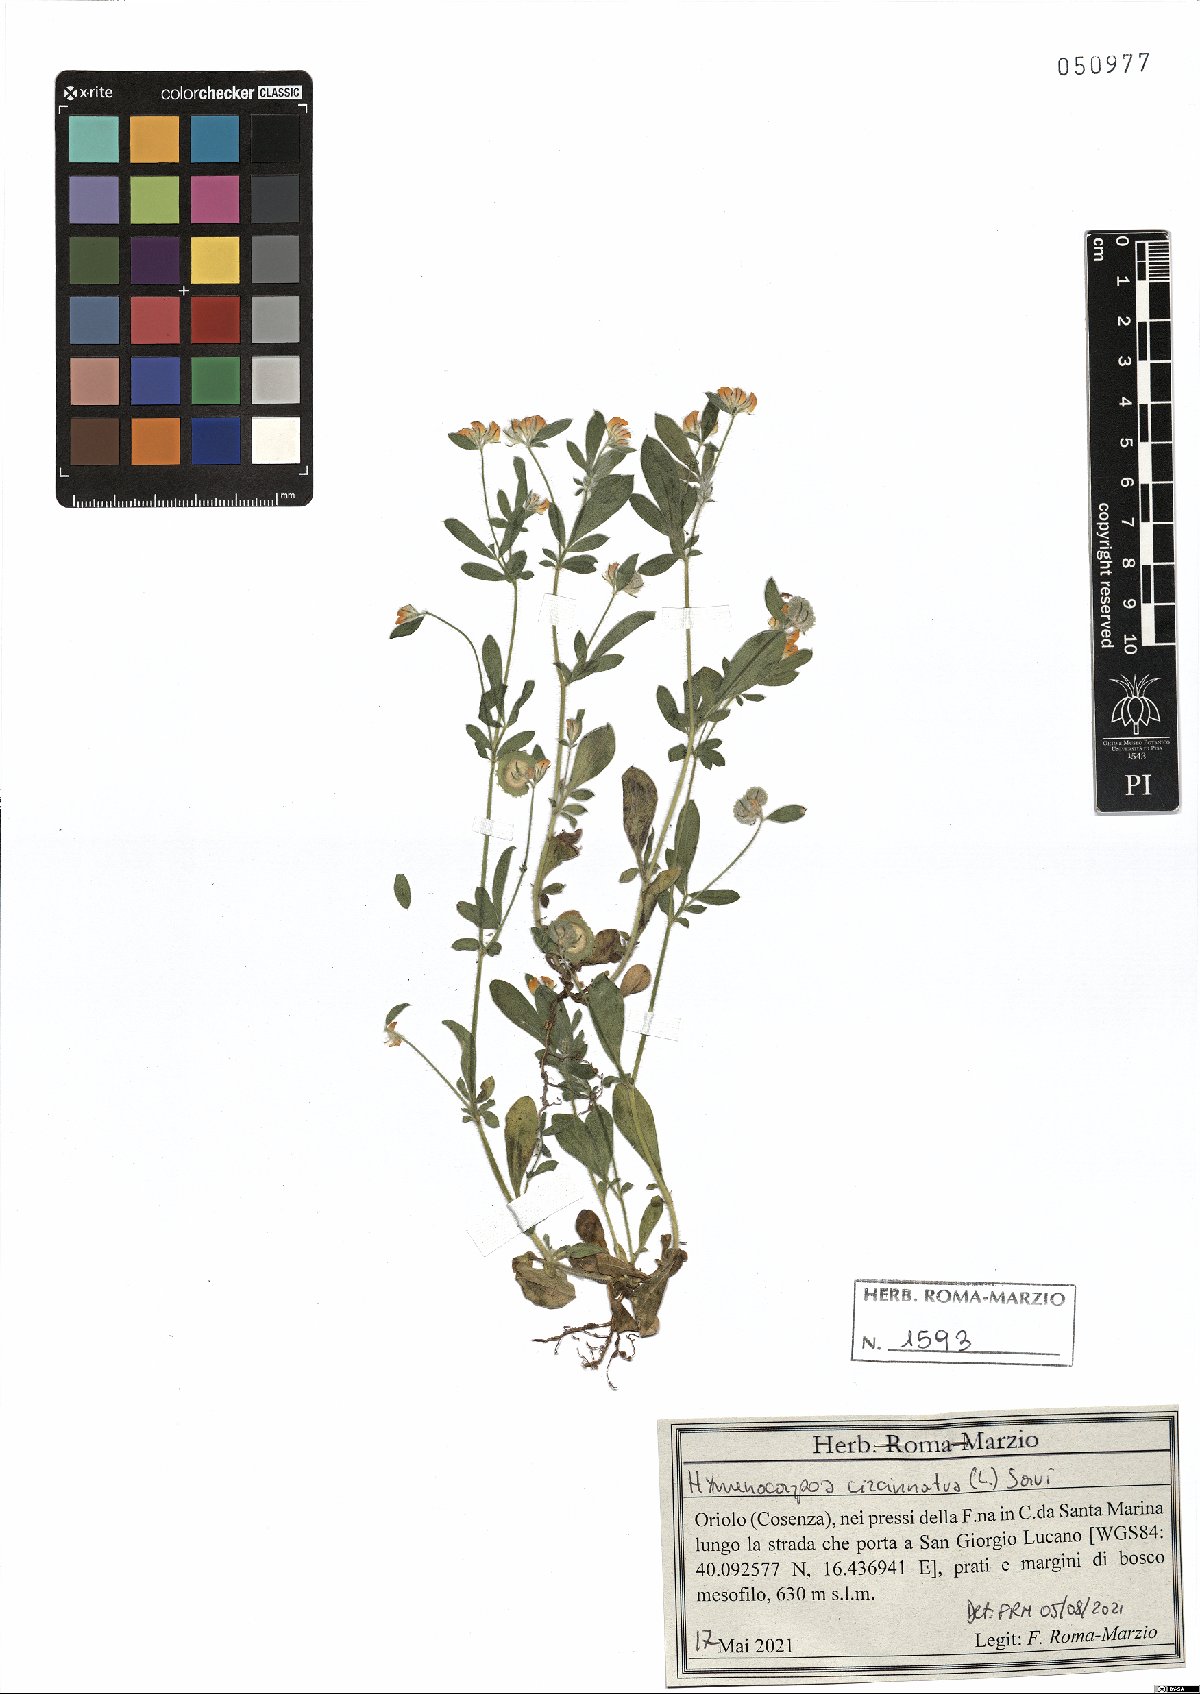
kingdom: Plantae
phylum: Tracheophyta
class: Magnoliopsida
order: Fabales
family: Fabaceae
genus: Anthyllis
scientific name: Anthyllis circinnata
